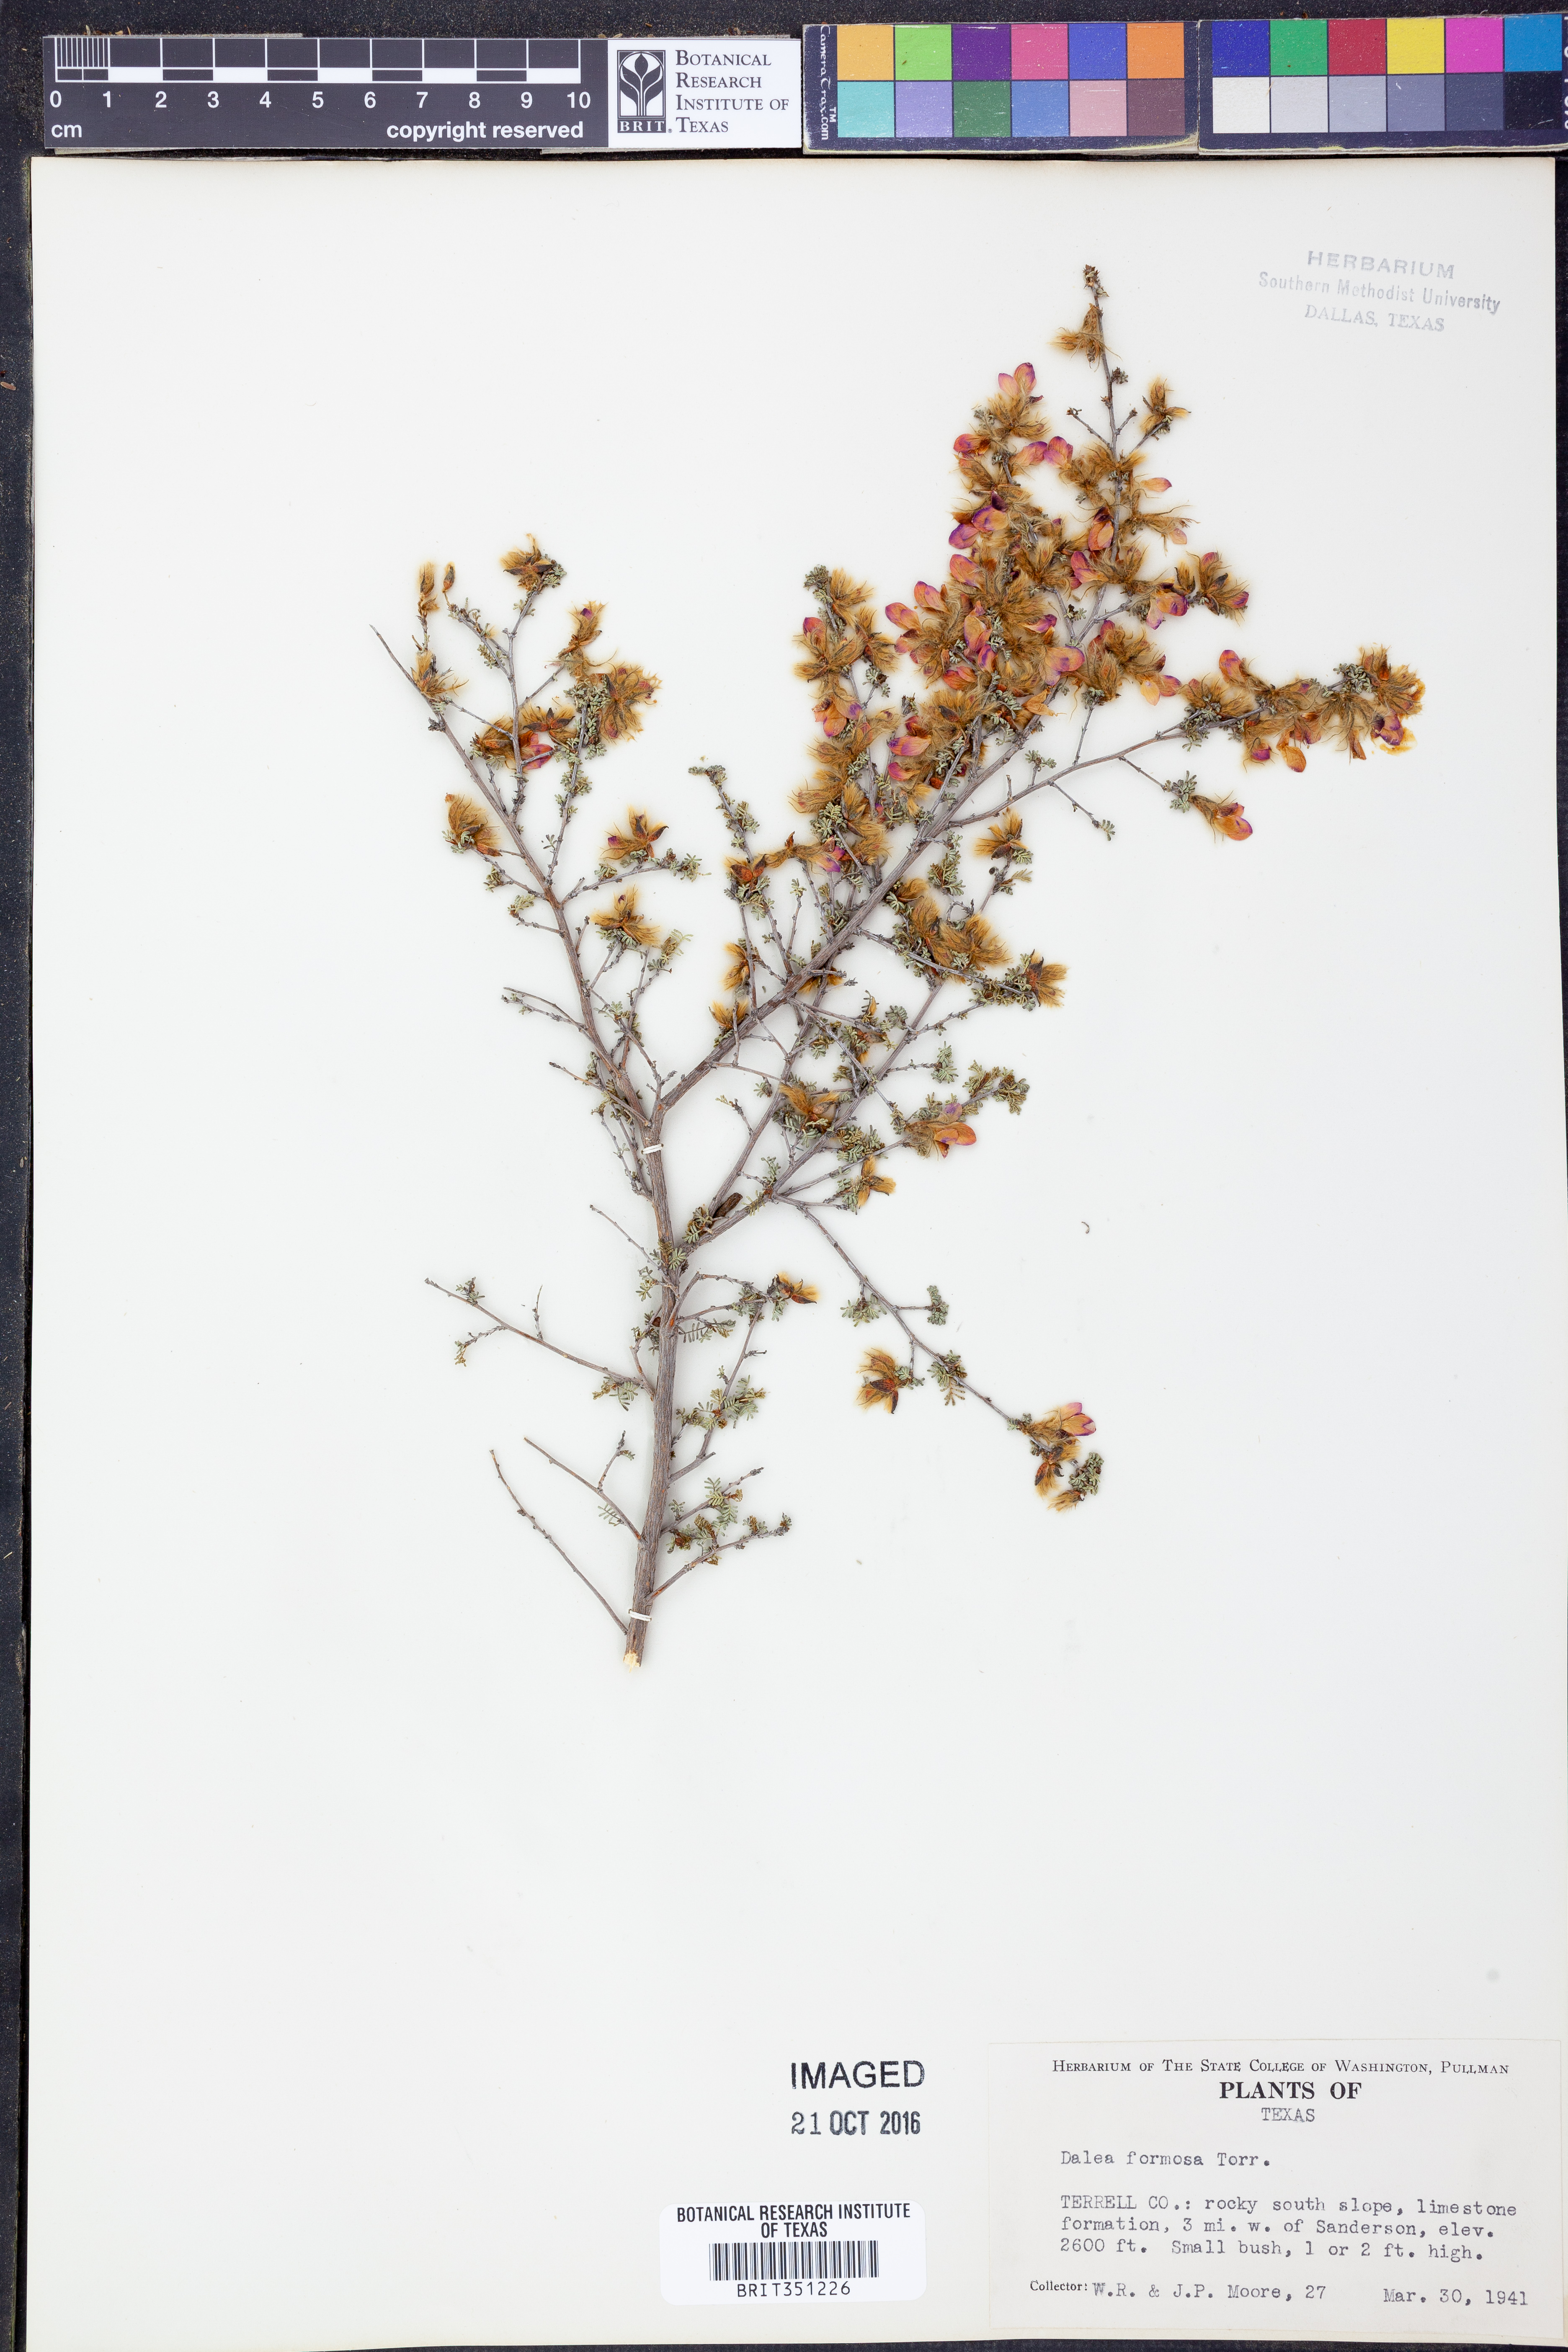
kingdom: Plantae
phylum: Tracheophyta
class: Magnoliopsida
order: Fabales
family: Fabaceae
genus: Dalea
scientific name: Dalea formosa
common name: Feather-plume dalea
